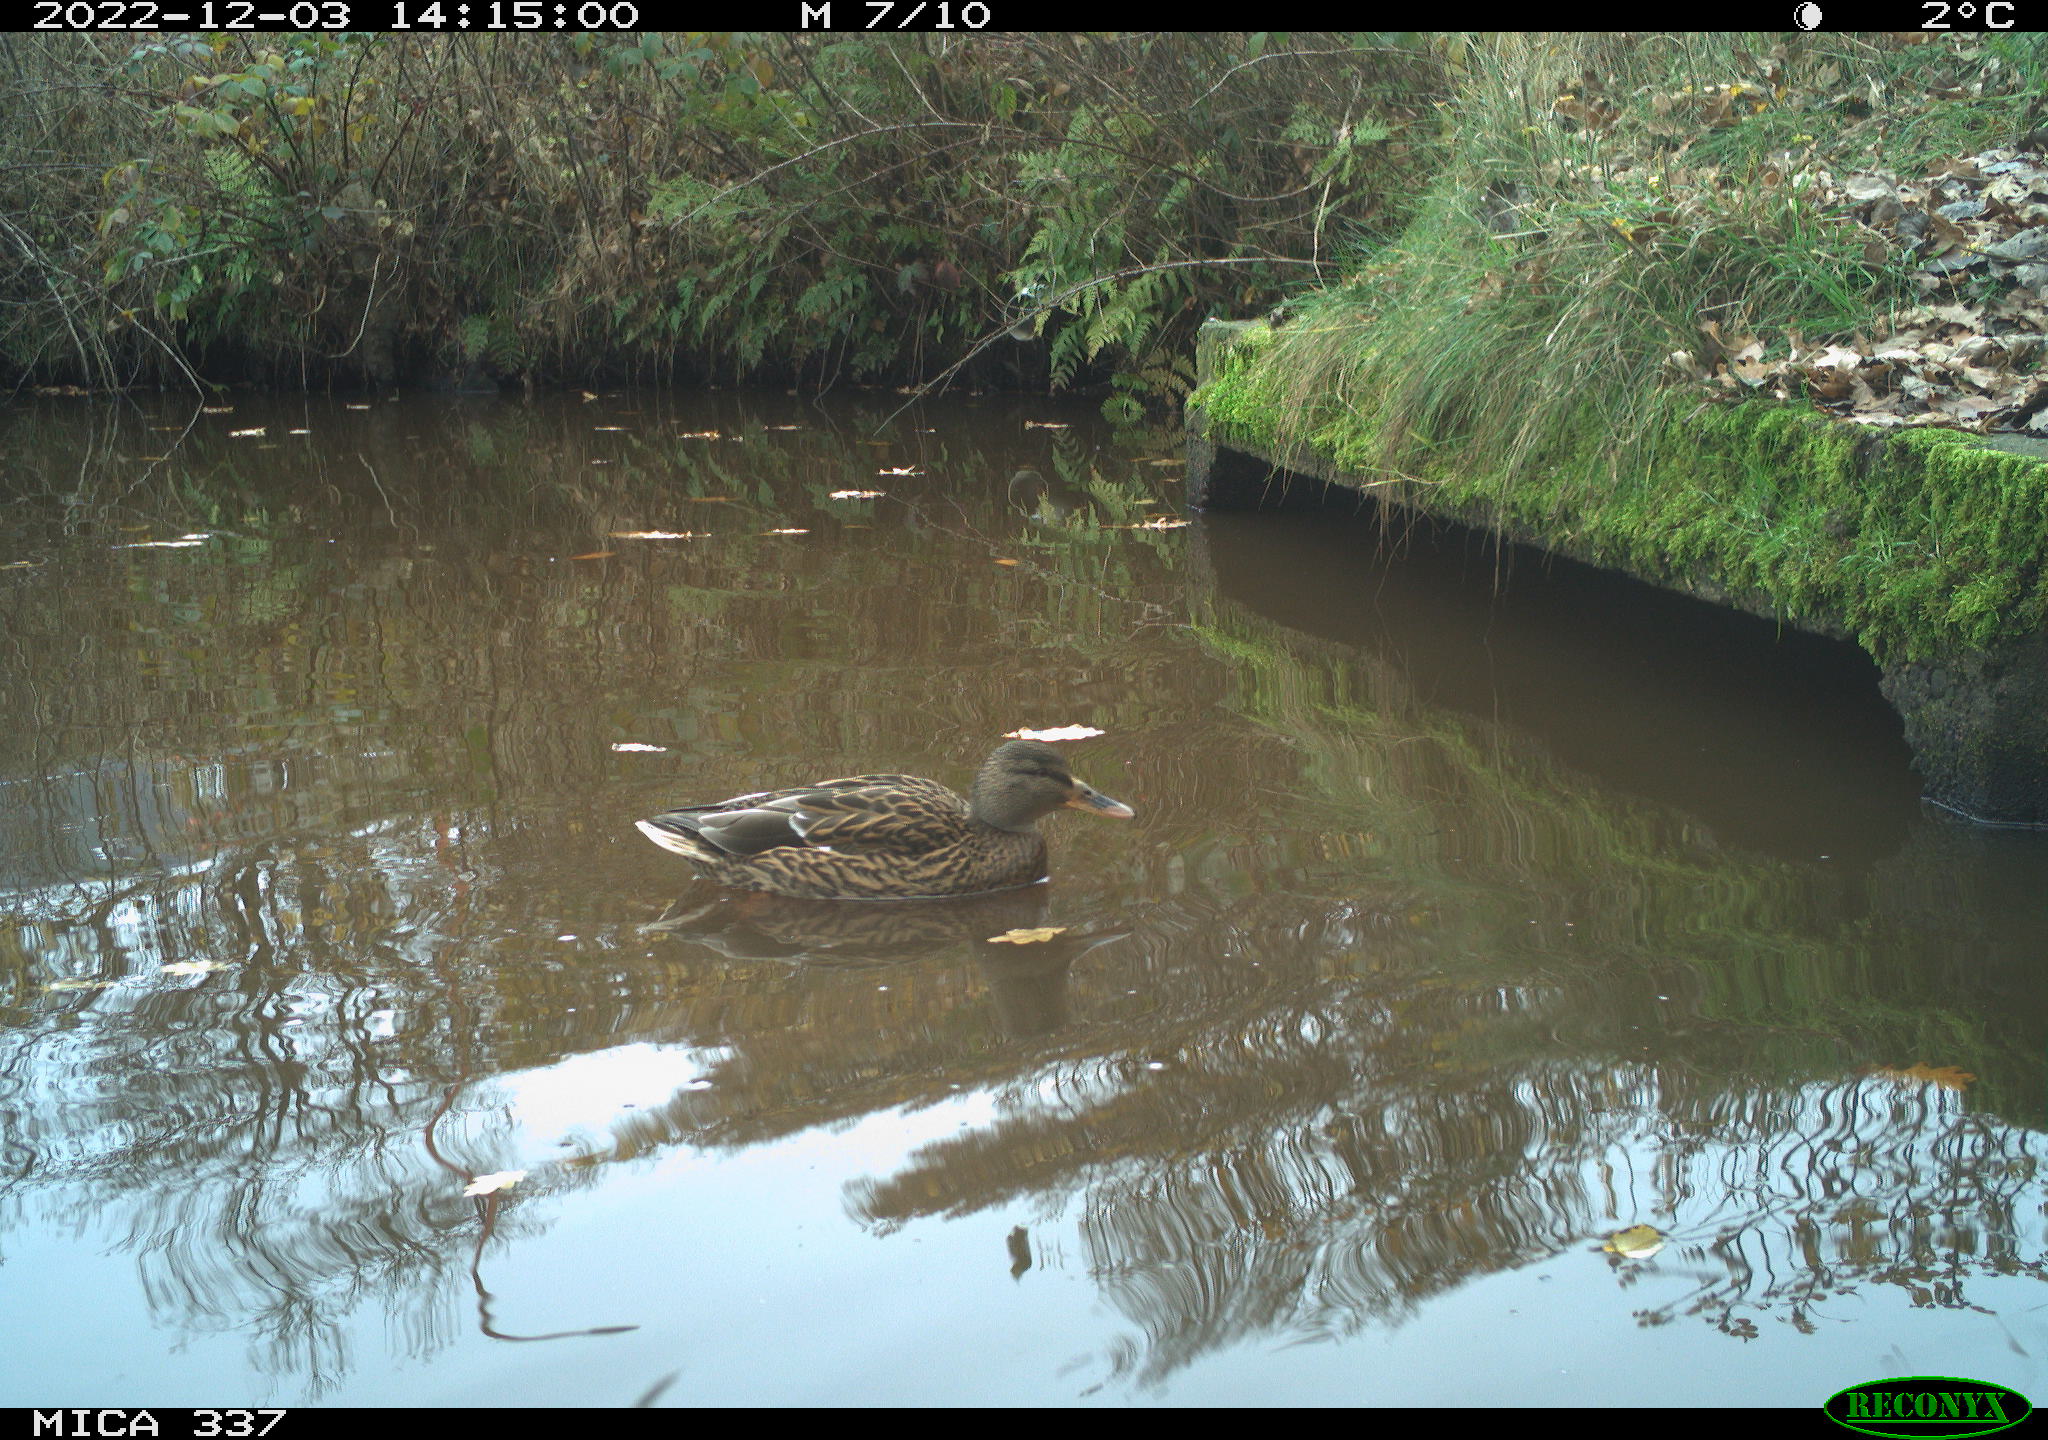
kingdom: Animalia
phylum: Chordata
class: Aves
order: Anseriformes
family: Anatidae
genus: Anas
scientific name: Anas
